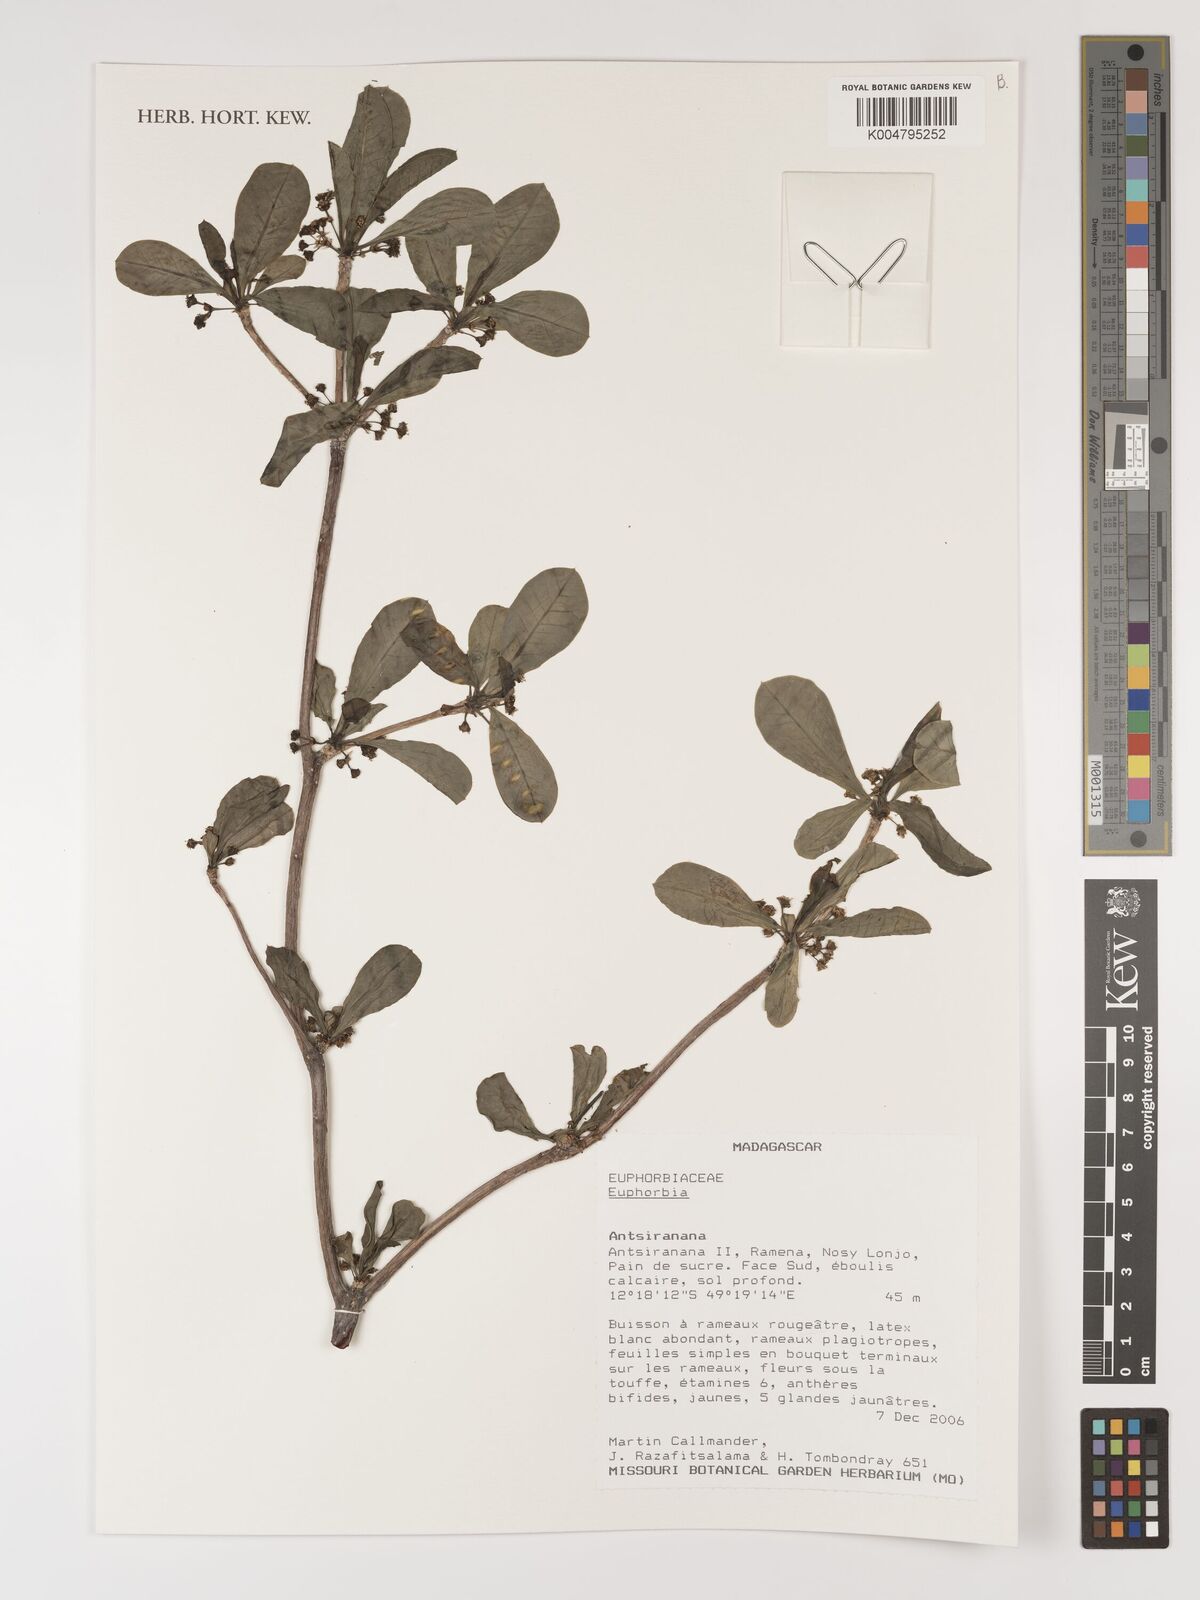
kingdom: Plantae
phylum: Tracheophyta
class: Magnoliopsida
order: Malpighiales
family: Euphorbiaceae
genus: Euphorbia
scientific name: Euphorbia
